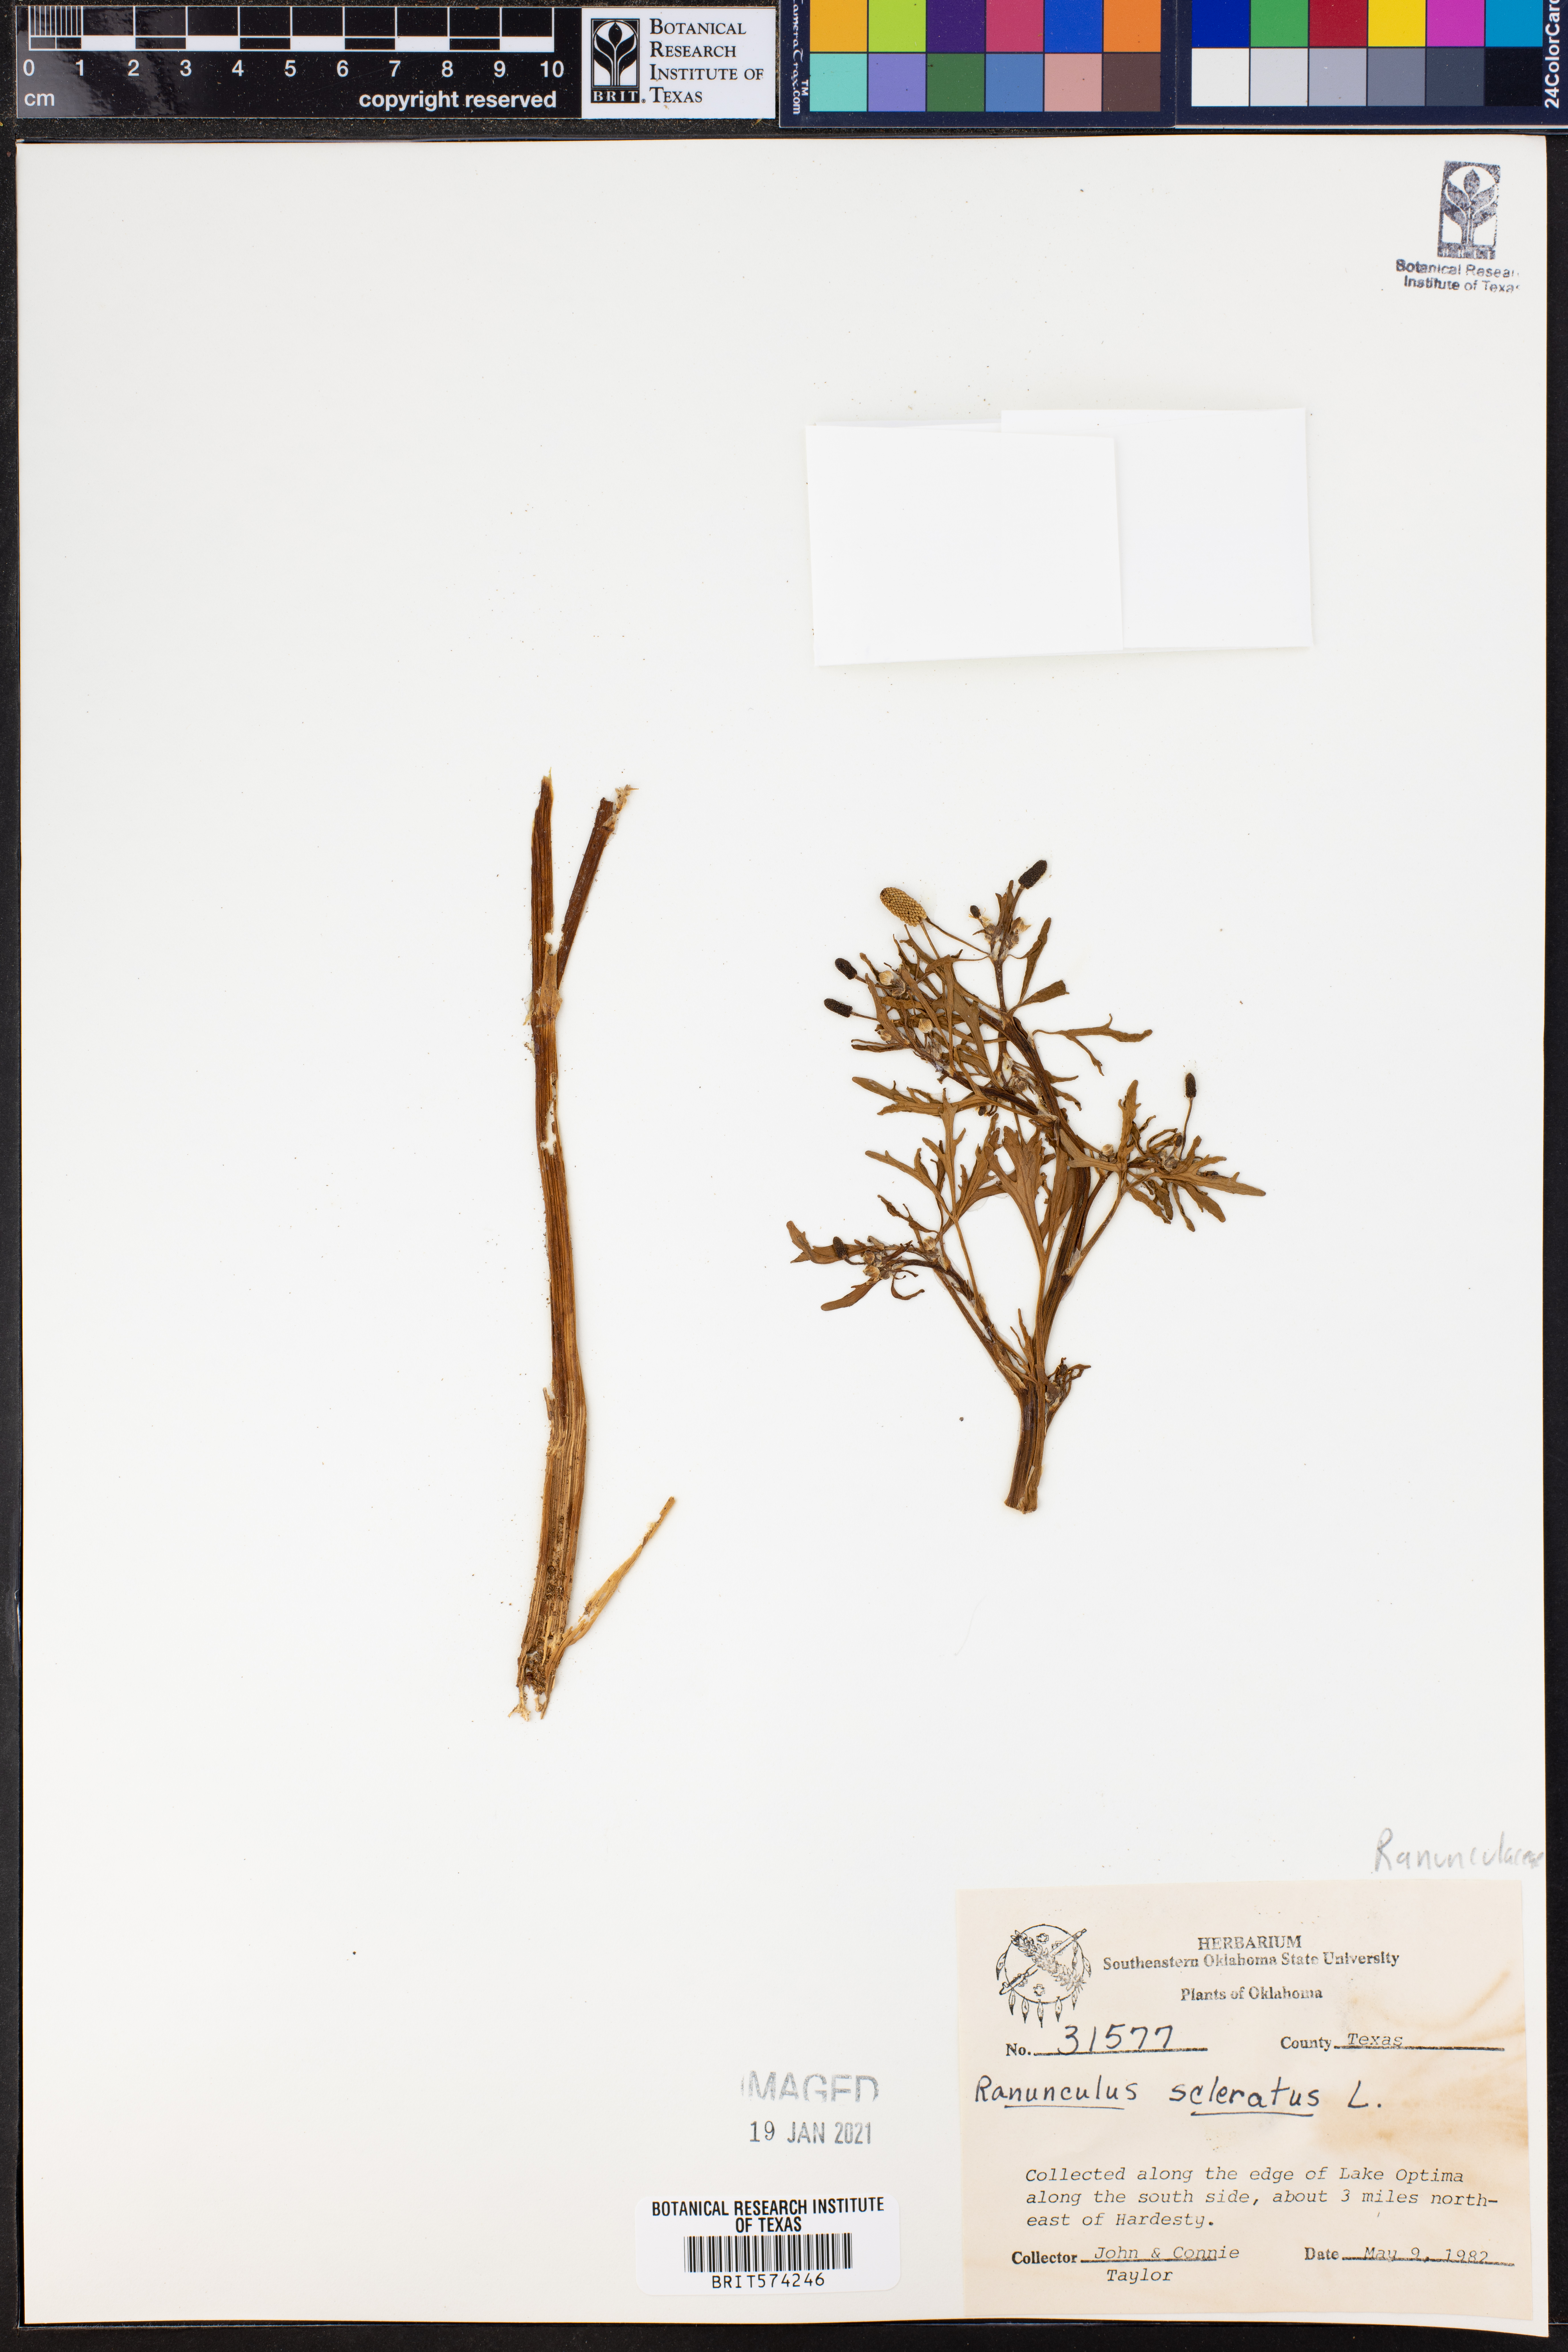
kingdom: Plantae
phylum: Tracheophyta
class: Magnoliopsida
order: Ranunculales
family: Ranunculaceae
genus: Ranunculus
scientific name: Ranunculus sceleratus
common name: Celery-leaved buttercup
